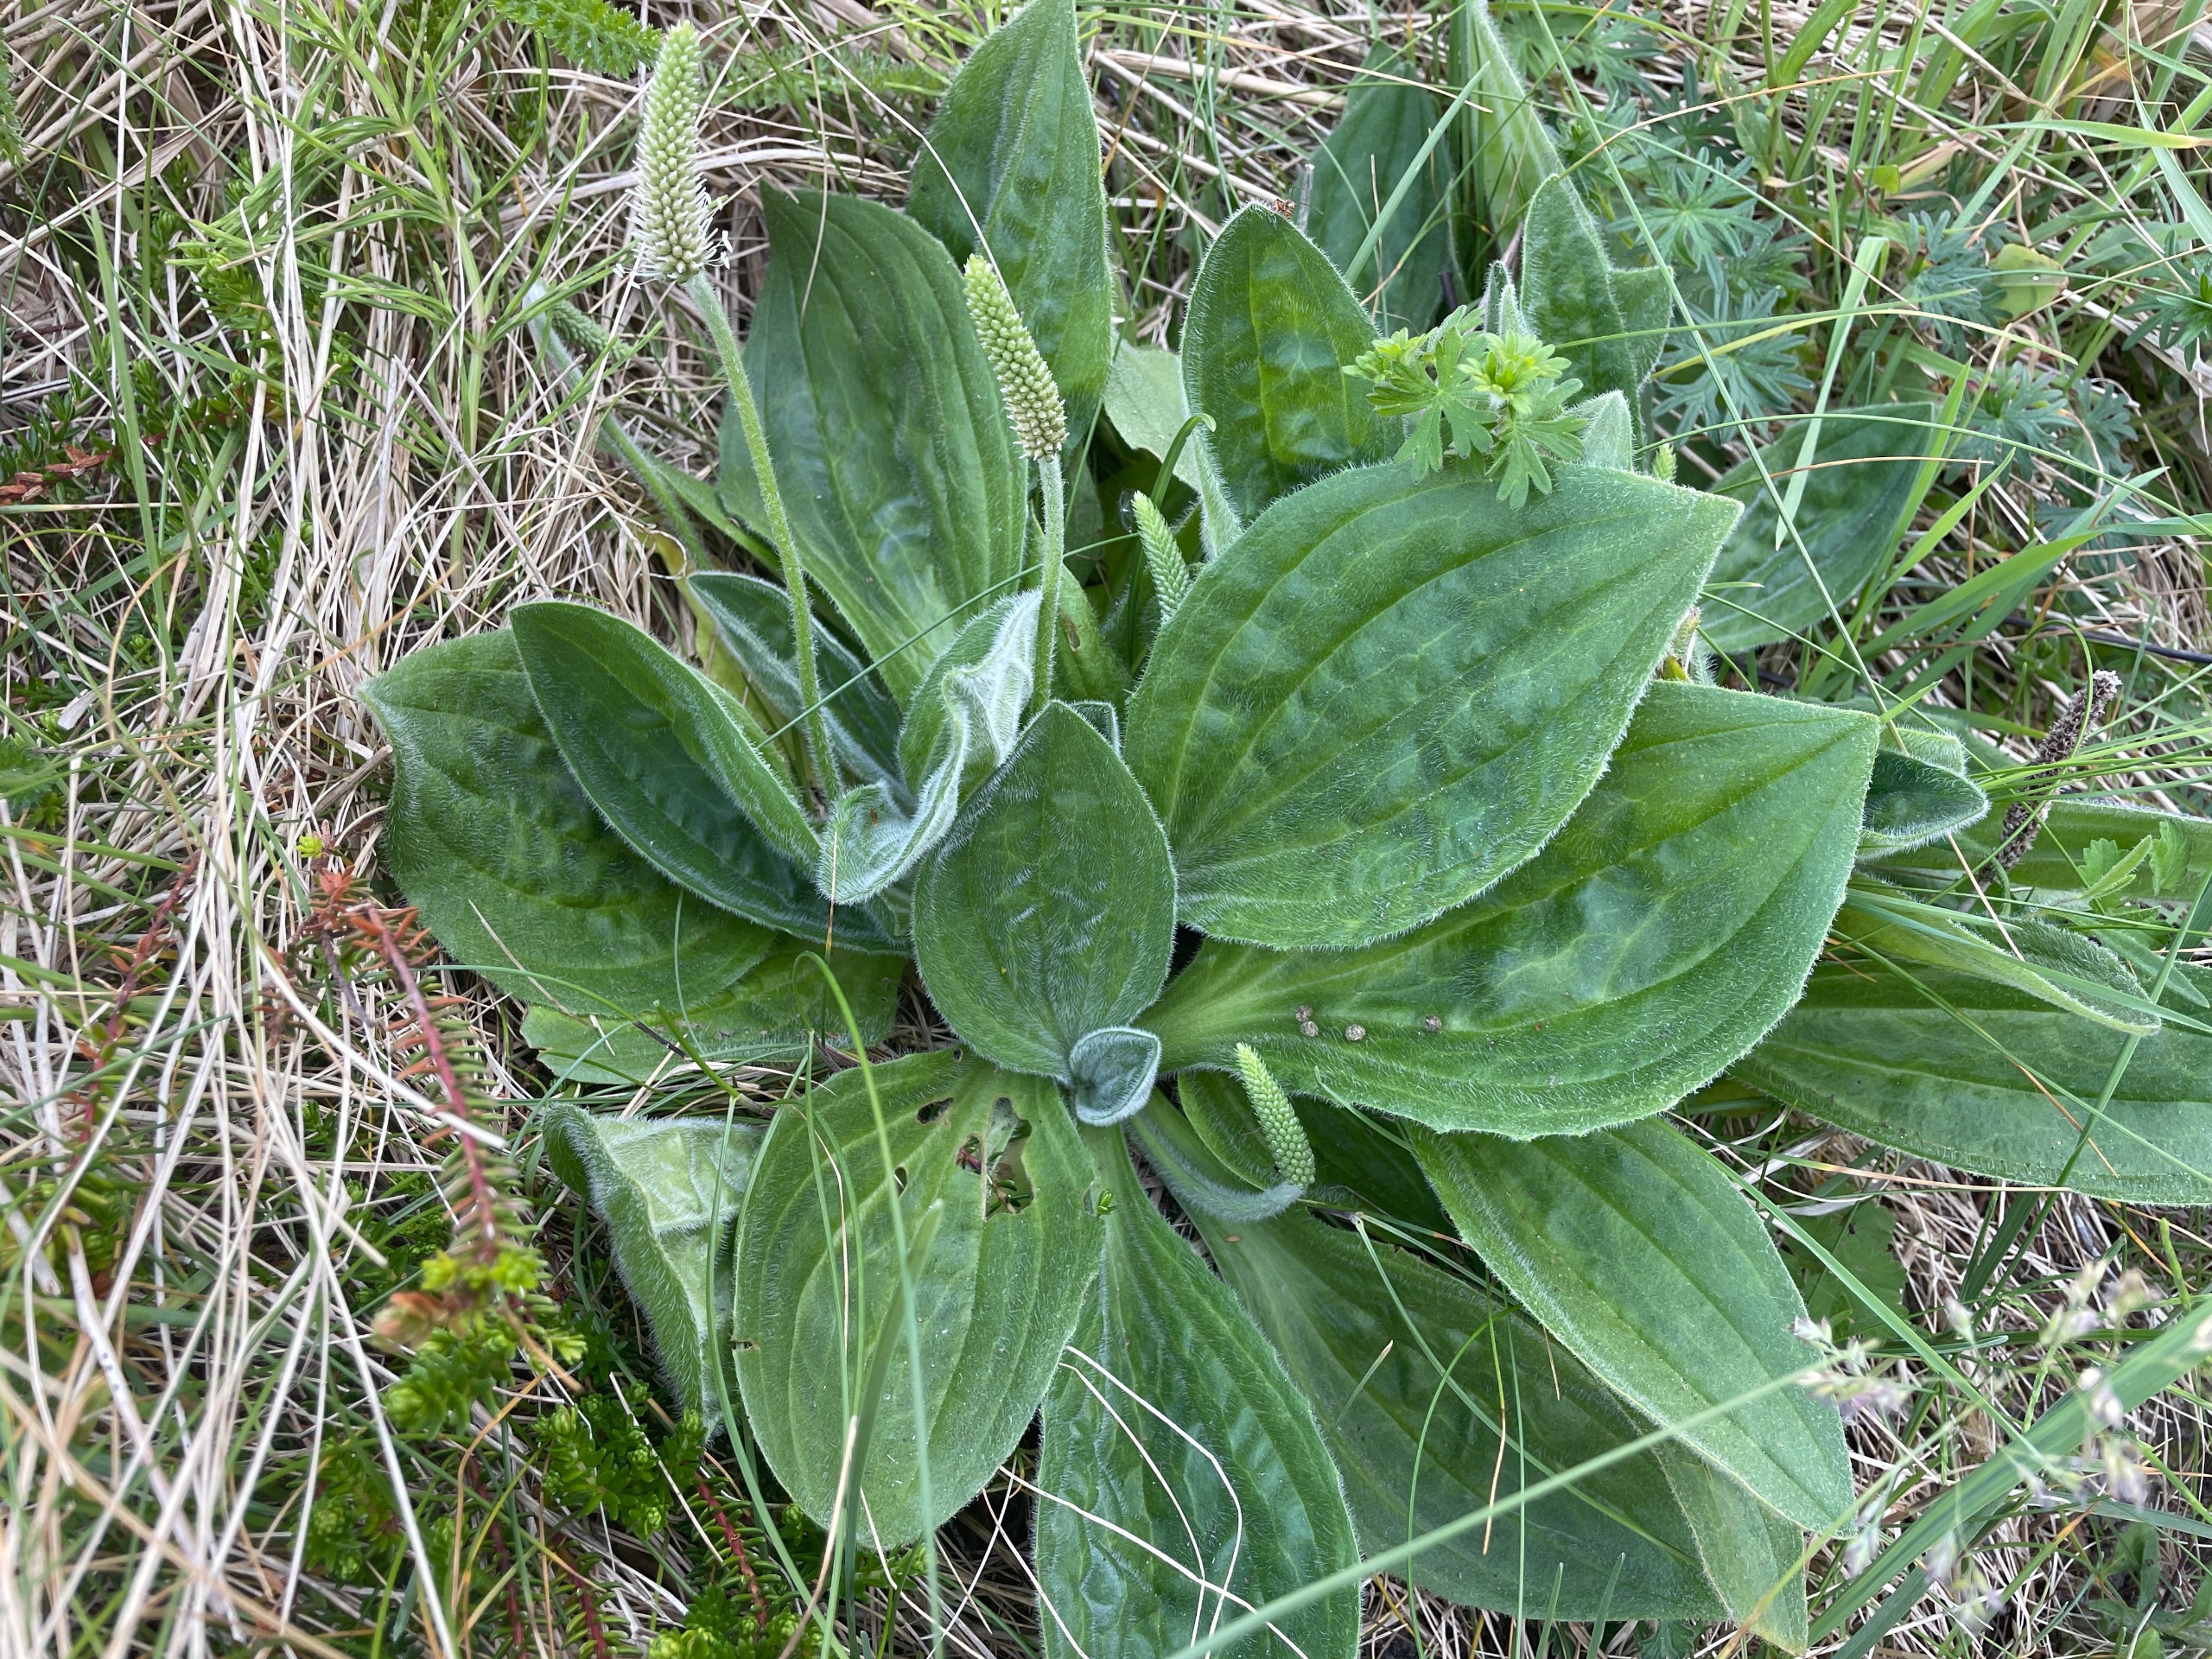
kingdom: Plantae
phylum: Tracheophyta
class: Magnoliopsida
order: Lamiales
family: Plantaginaceae
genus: Plantago
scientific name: Plantago media
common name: Dunet vejbred
